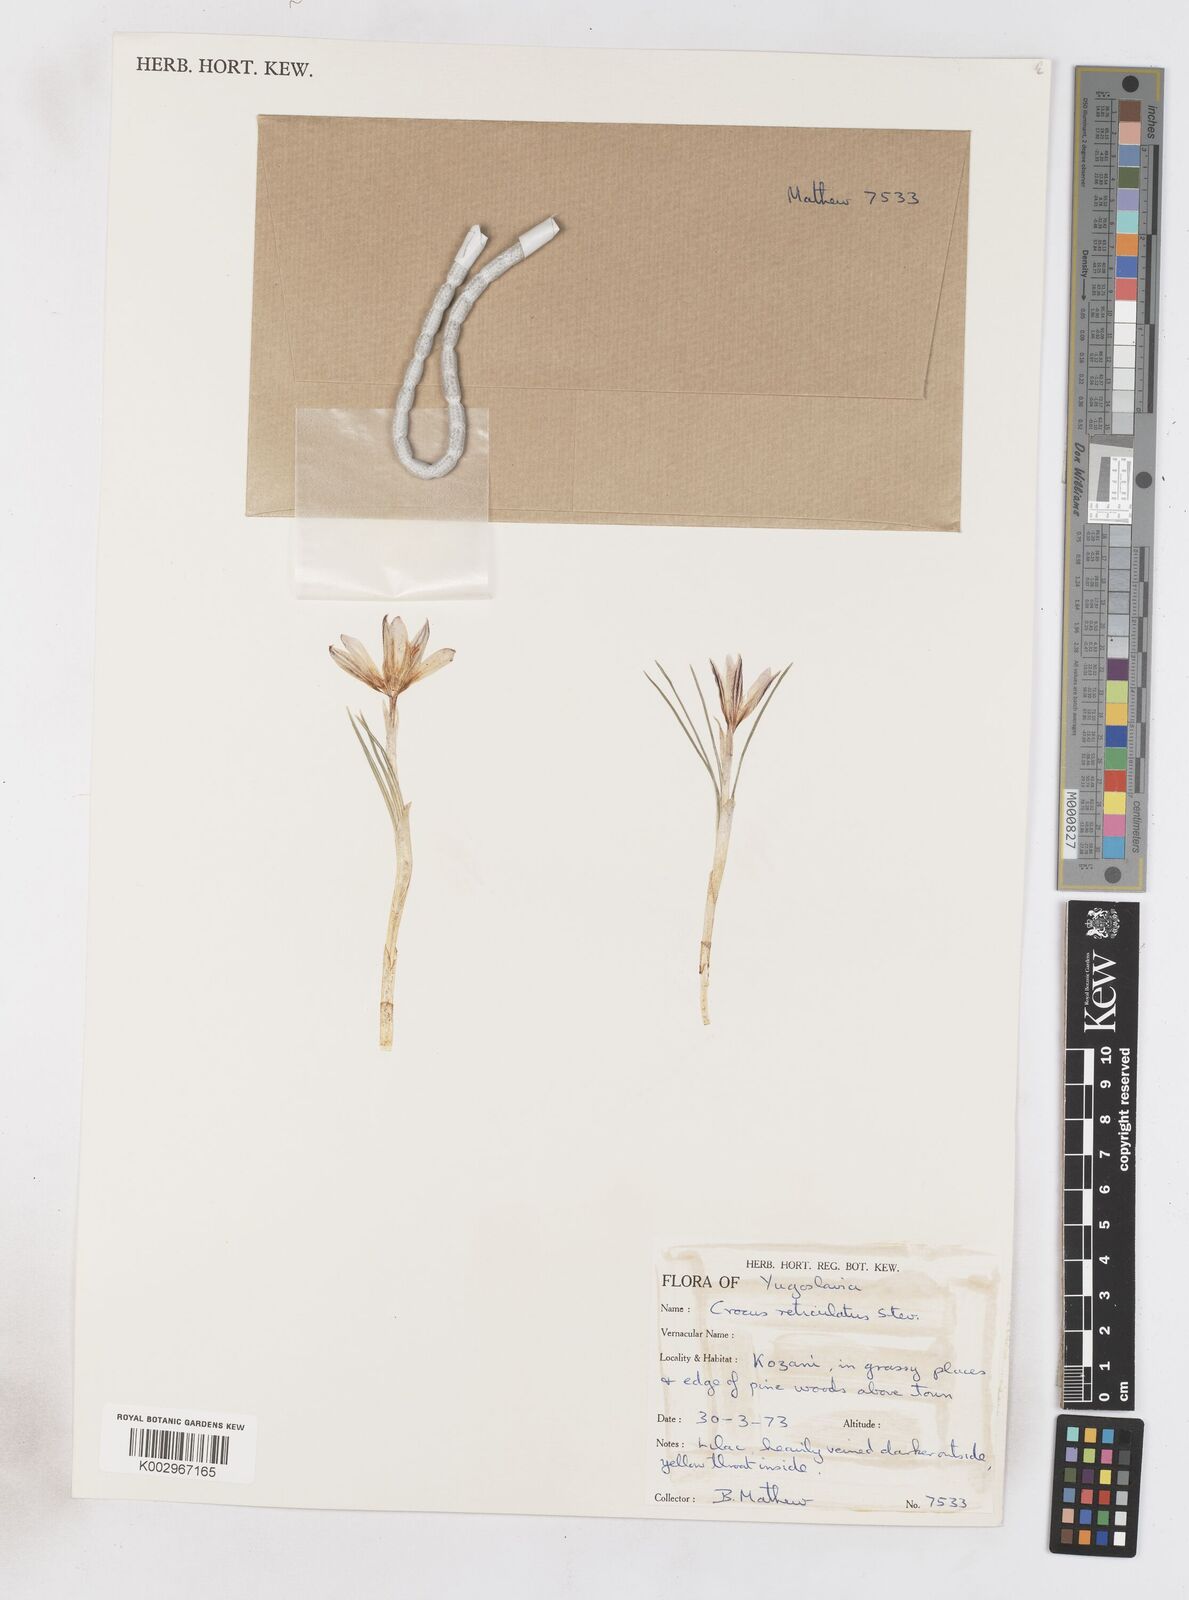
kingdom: Plantae
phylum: Tracheophyta
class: Liliopsida
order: Asparagales
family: Iridaceae
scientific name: Iridaceae
